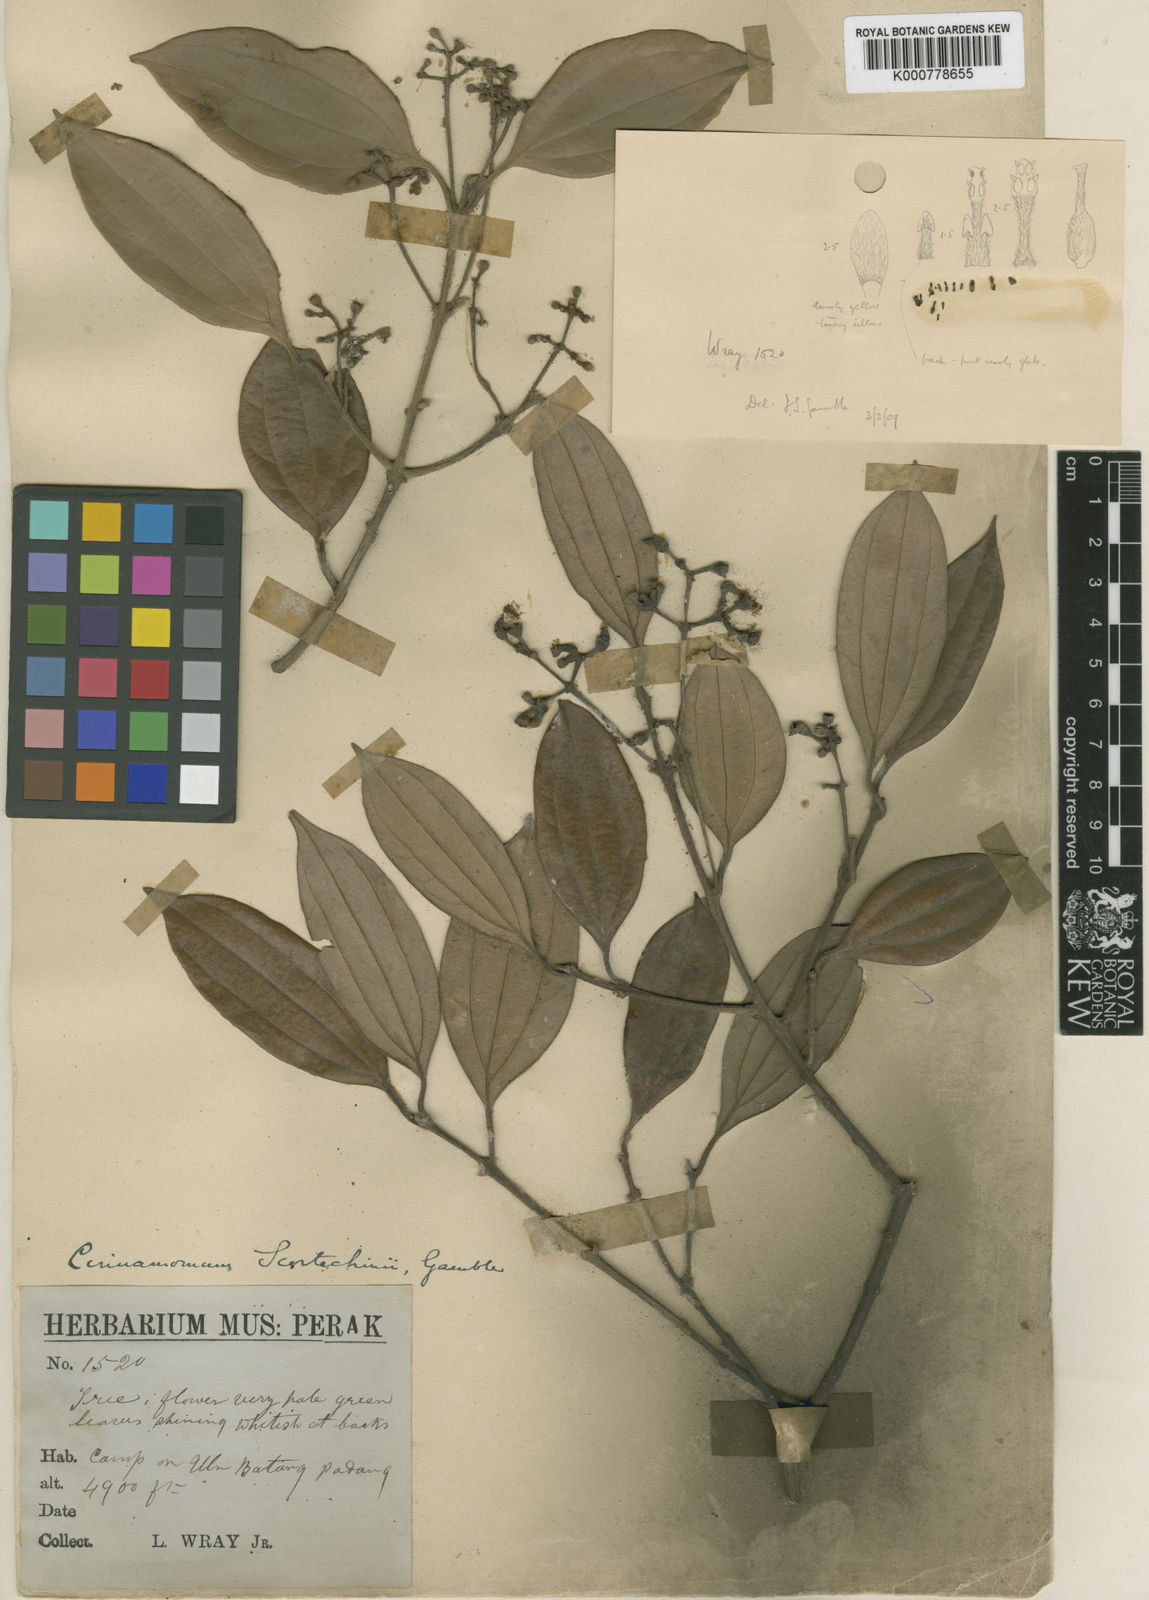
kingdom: Plantae
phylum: Tracheophyta
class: Magnoliopsida
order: Laurales
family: Lauraceae
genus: Cinnamomum
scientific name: Cinnamomum scortechinii
